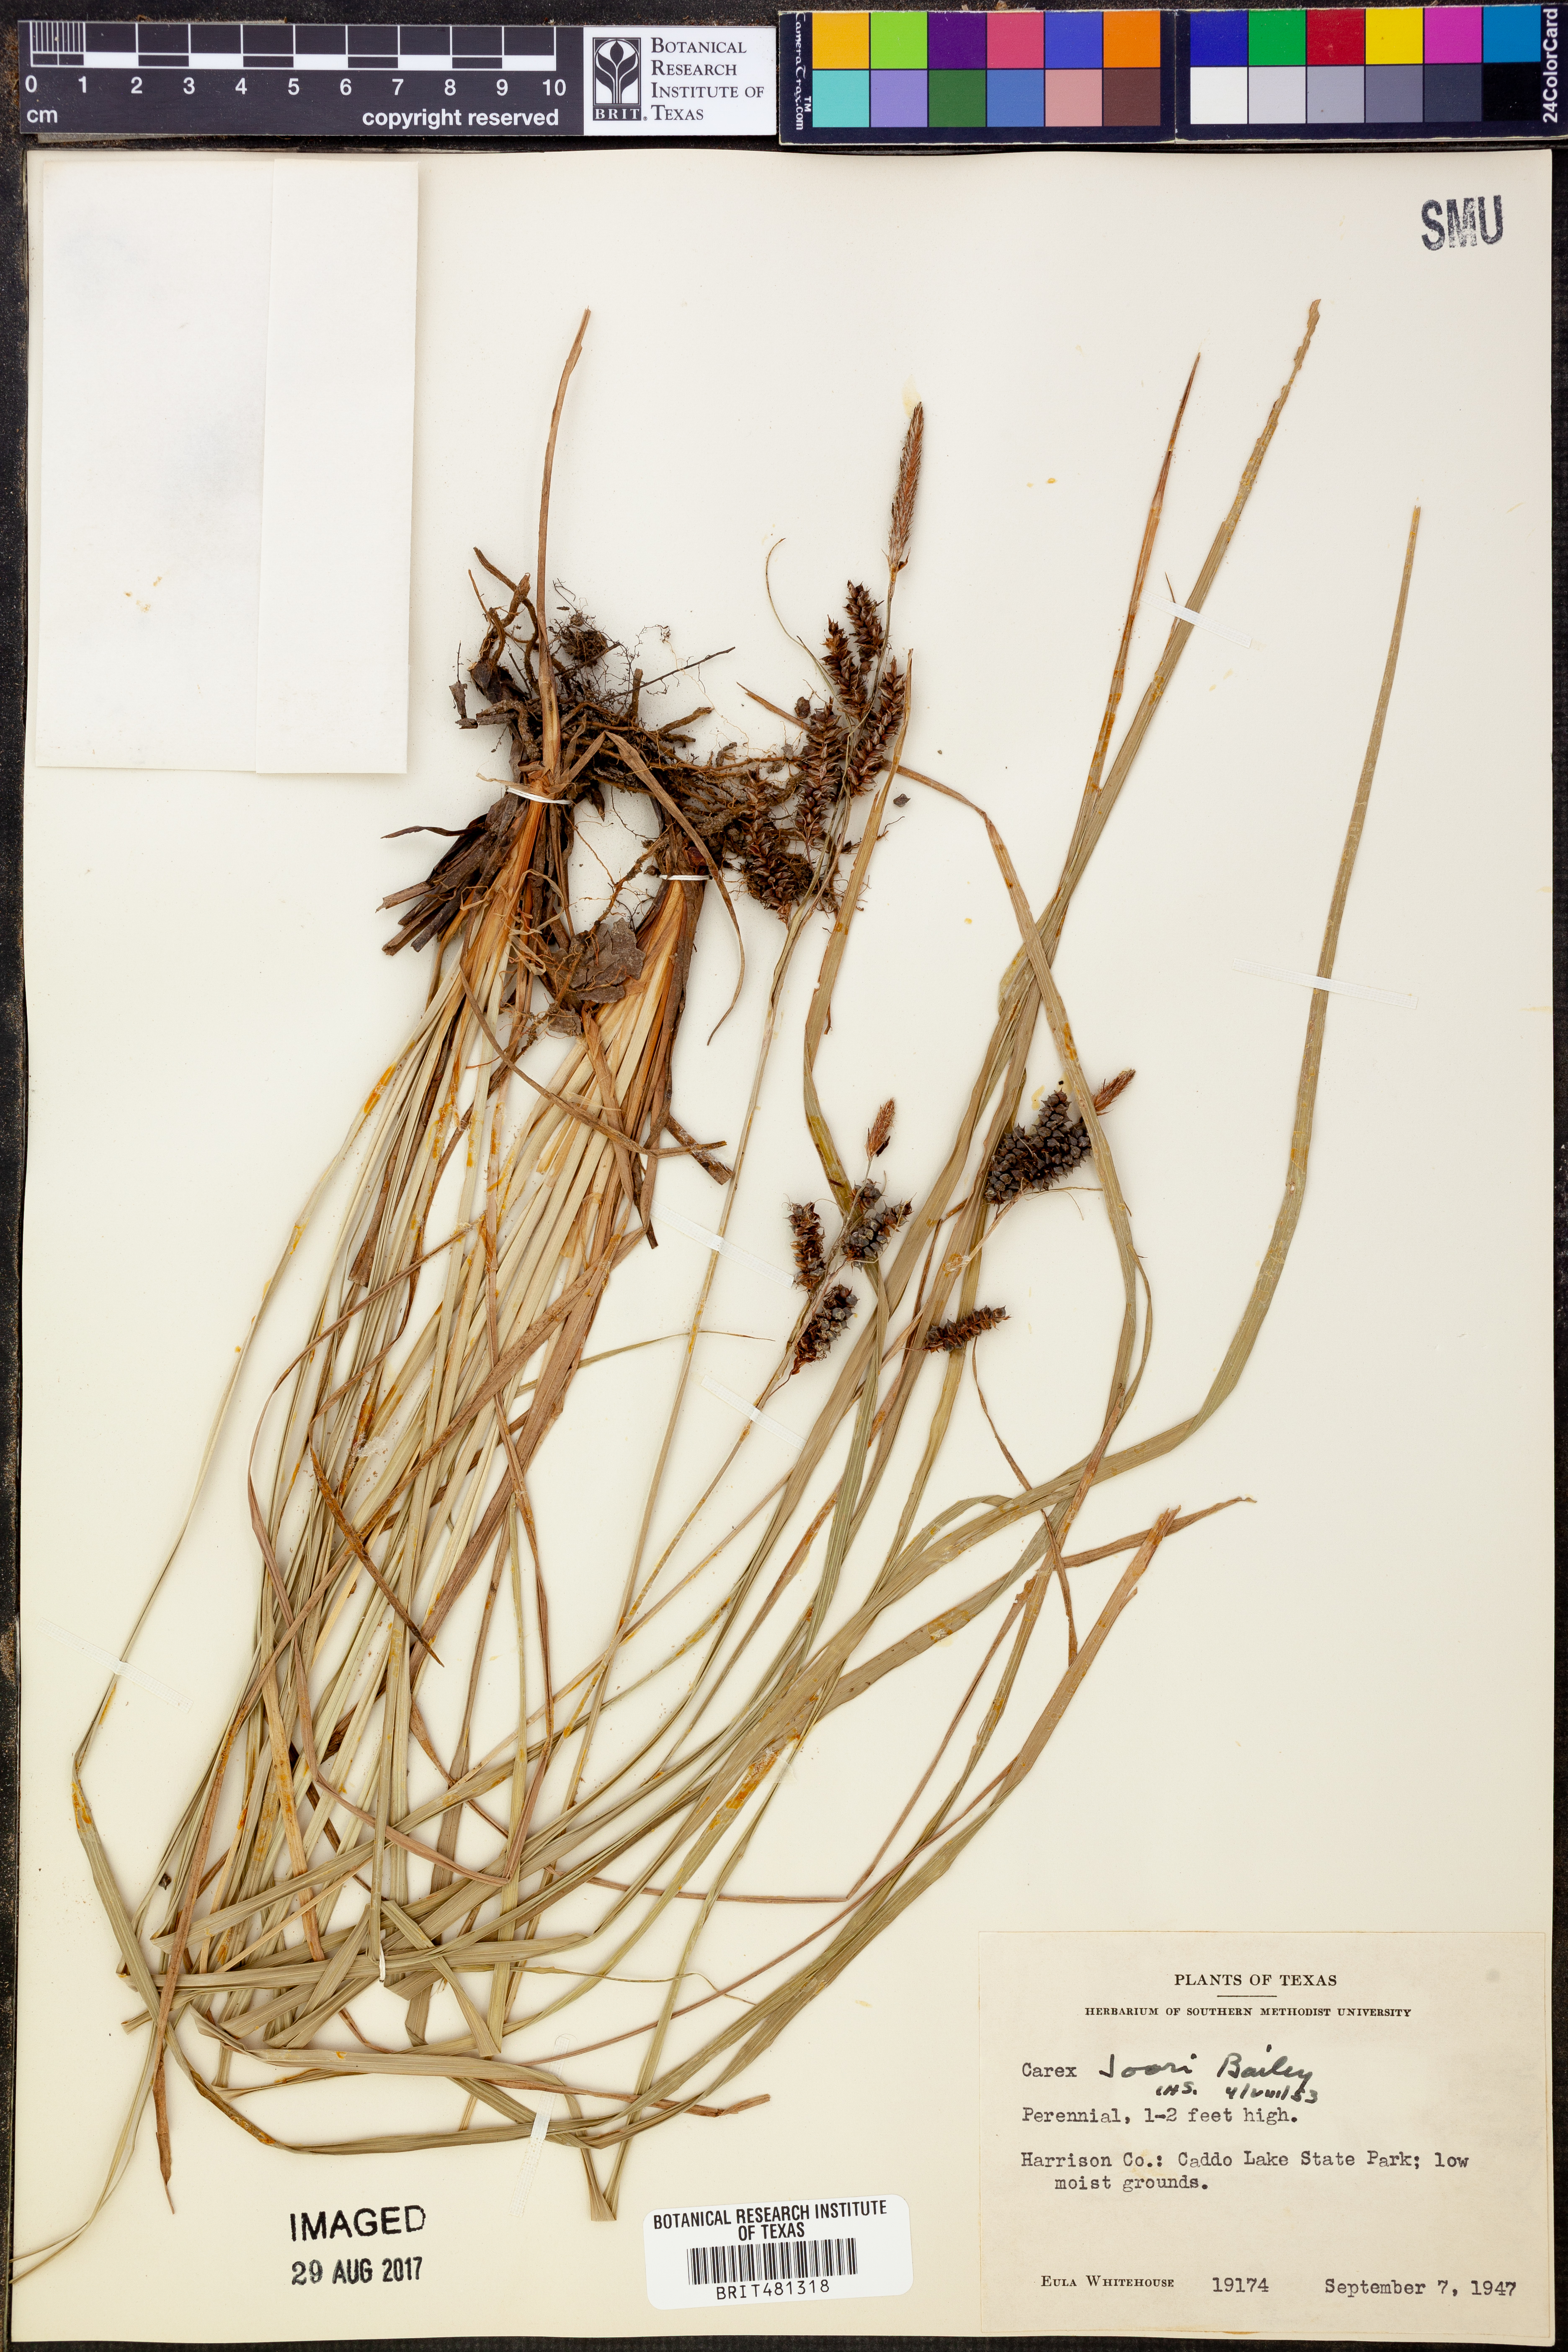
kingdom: Plantae
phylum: Tracheophyta
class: Liliopsida
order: Poales
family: Cyperaceae
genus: Carex
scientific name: Carex joorii
